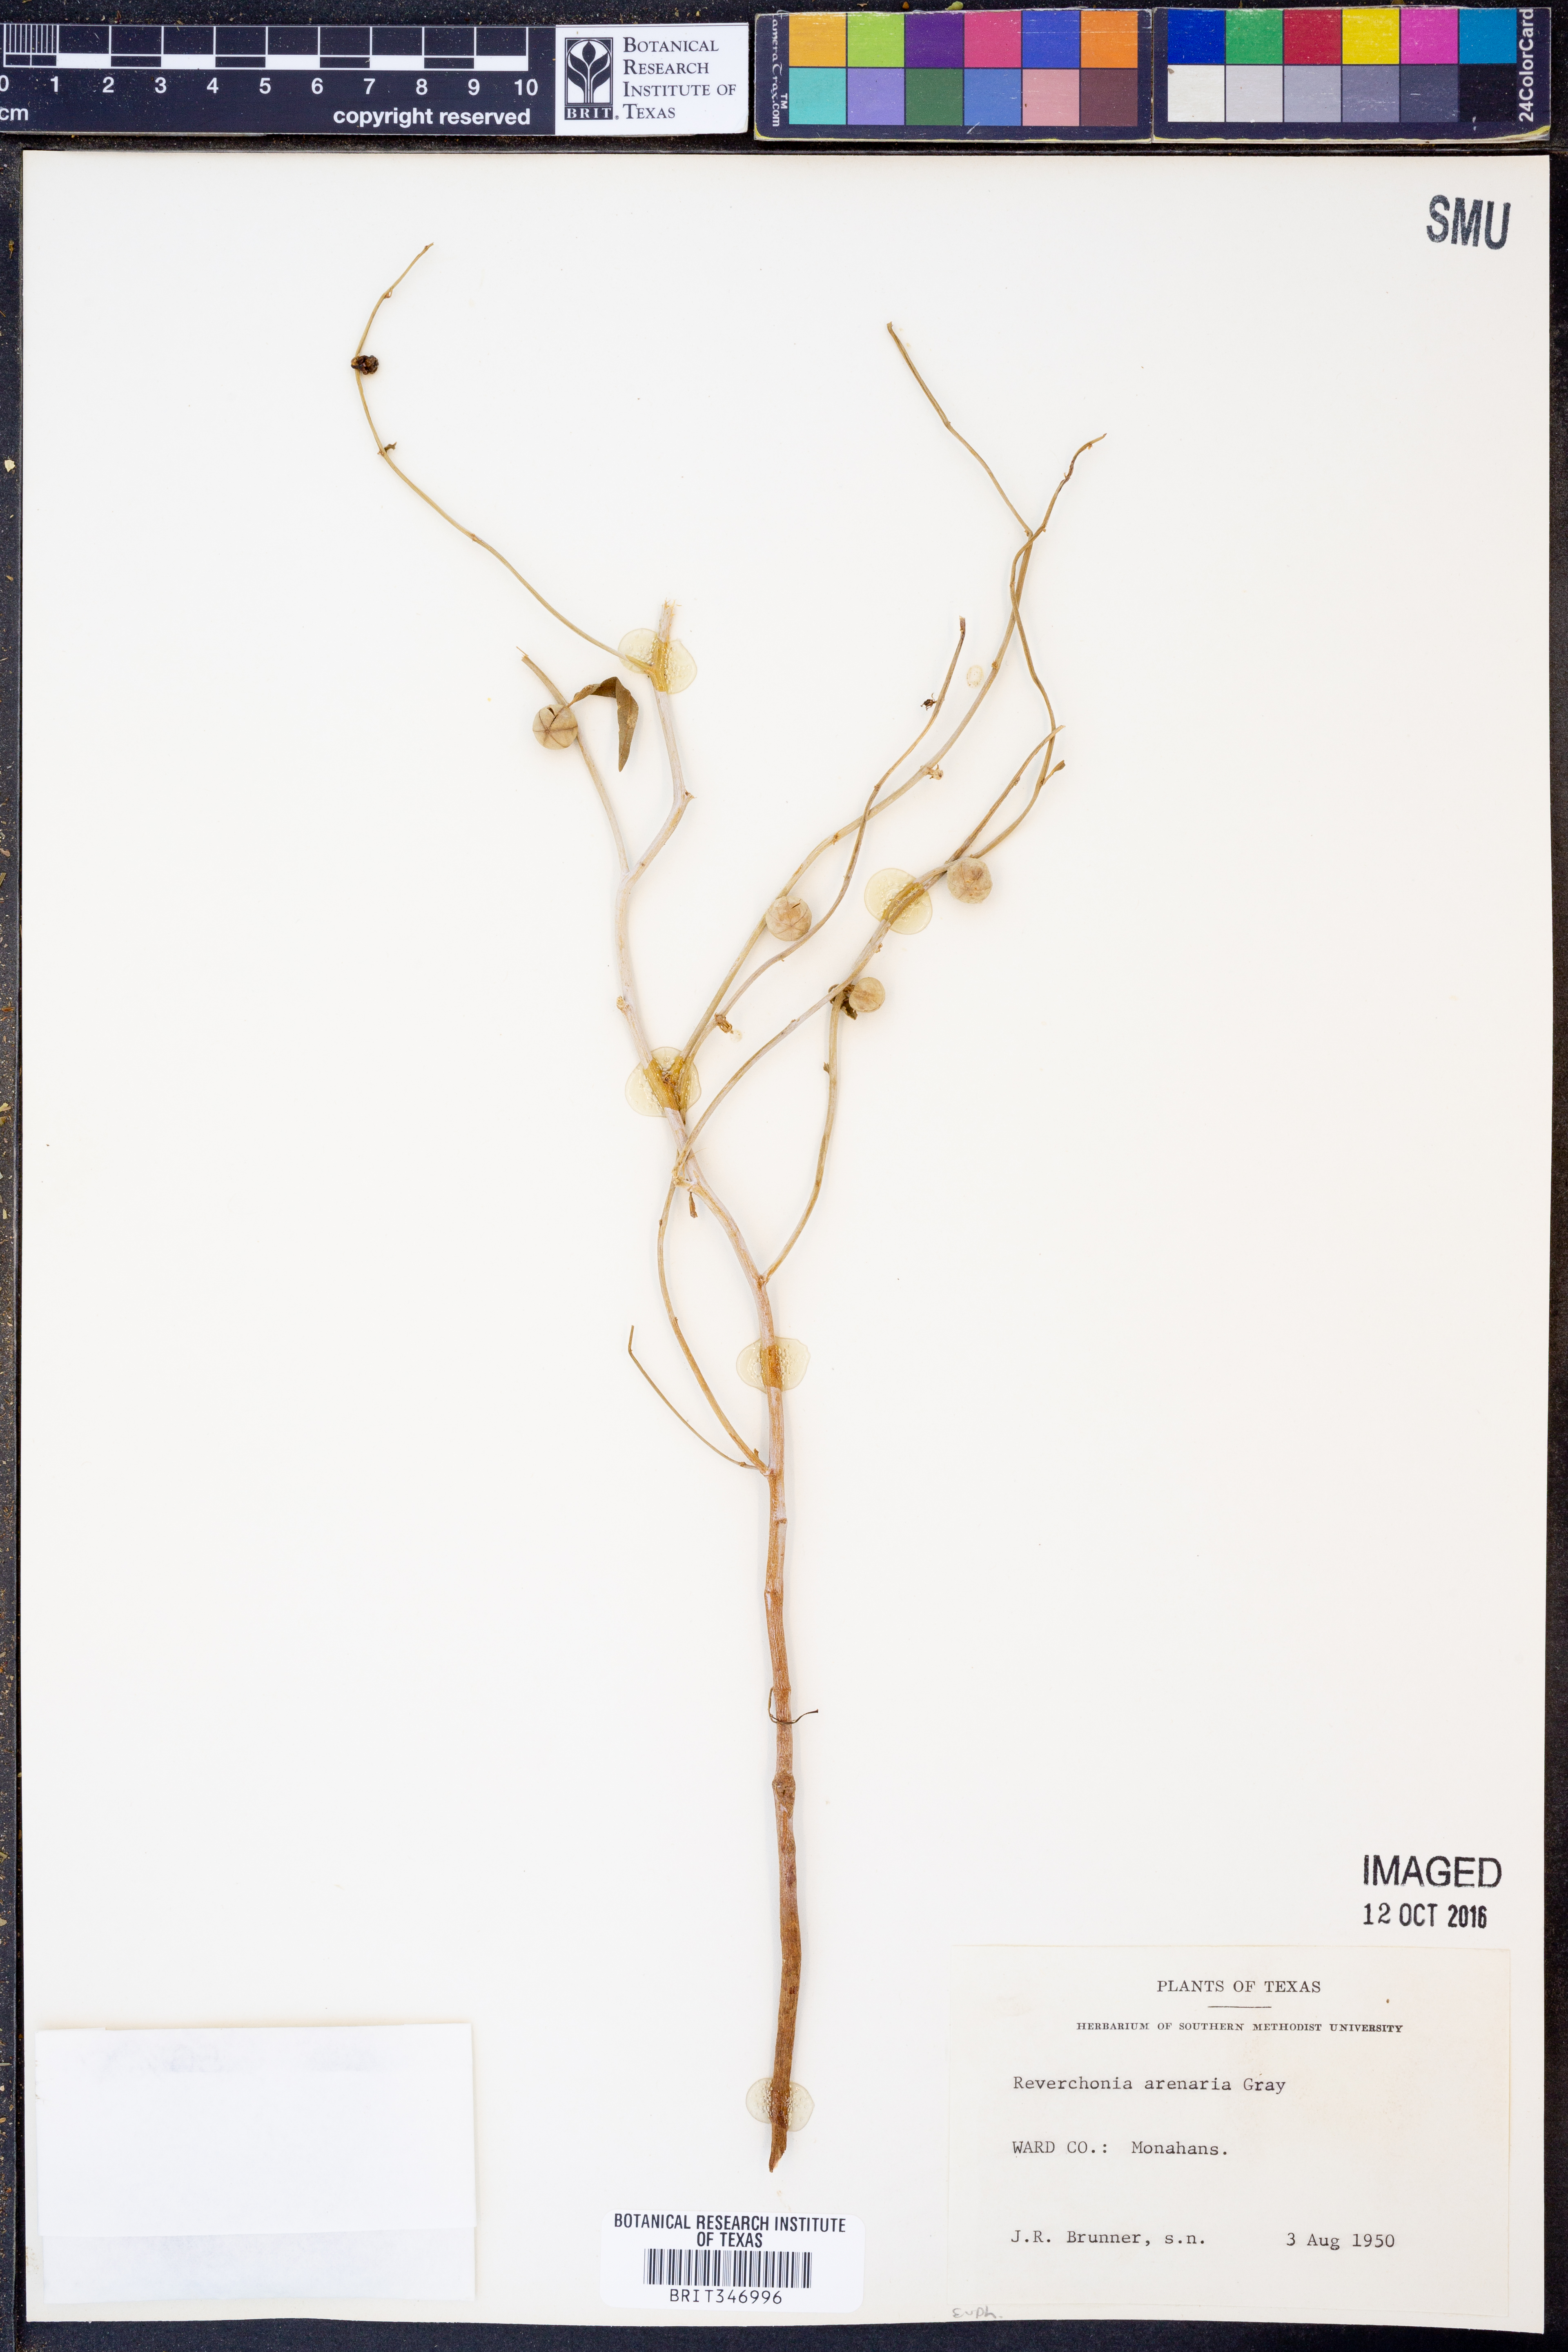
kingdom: Plantae
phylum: Tracheophyta
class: Magnoliopsida
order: Malpighiales
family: Phyllanthaceae
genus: Phyllanthus
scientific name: Phyllanthus warnockii
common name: Sand reverchonia
